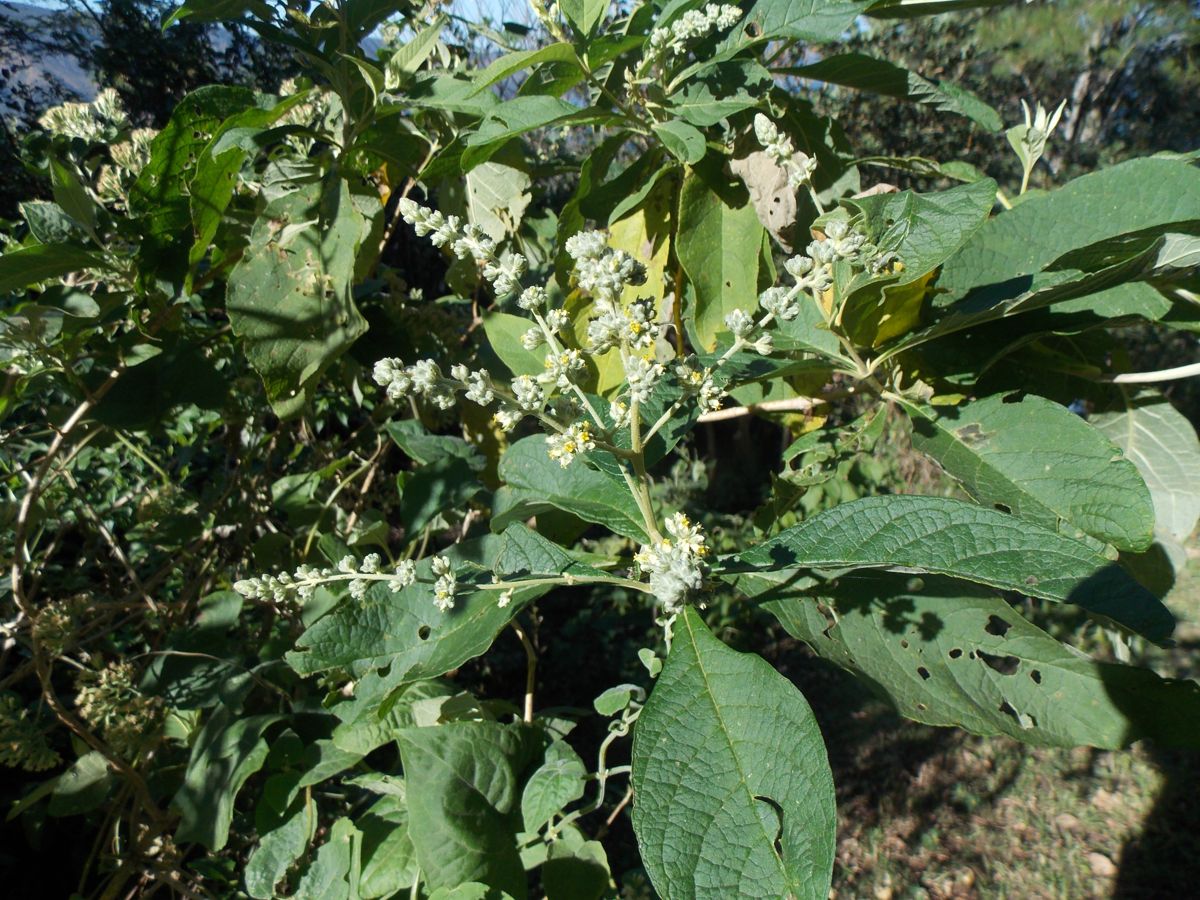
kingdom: Plantae
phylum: Tracheophyta
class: Magnoliopsida
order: Lamiales
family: Scrophulariaceae
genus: Buddleja
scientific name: Buddleja americana
